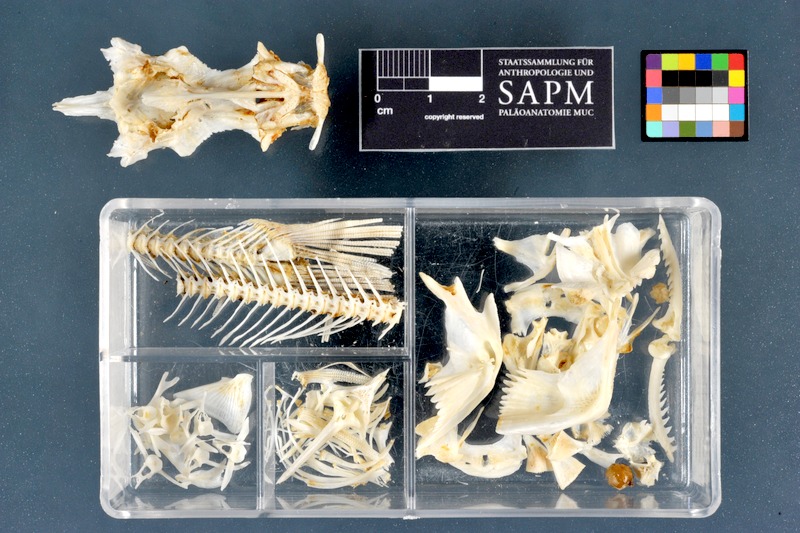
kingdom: Animalia
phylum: Chordata
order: Siluriformes
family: Claroteidae
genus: Chrysichthys
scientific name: Chrysichthys auratus
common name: Golden nile catfish
